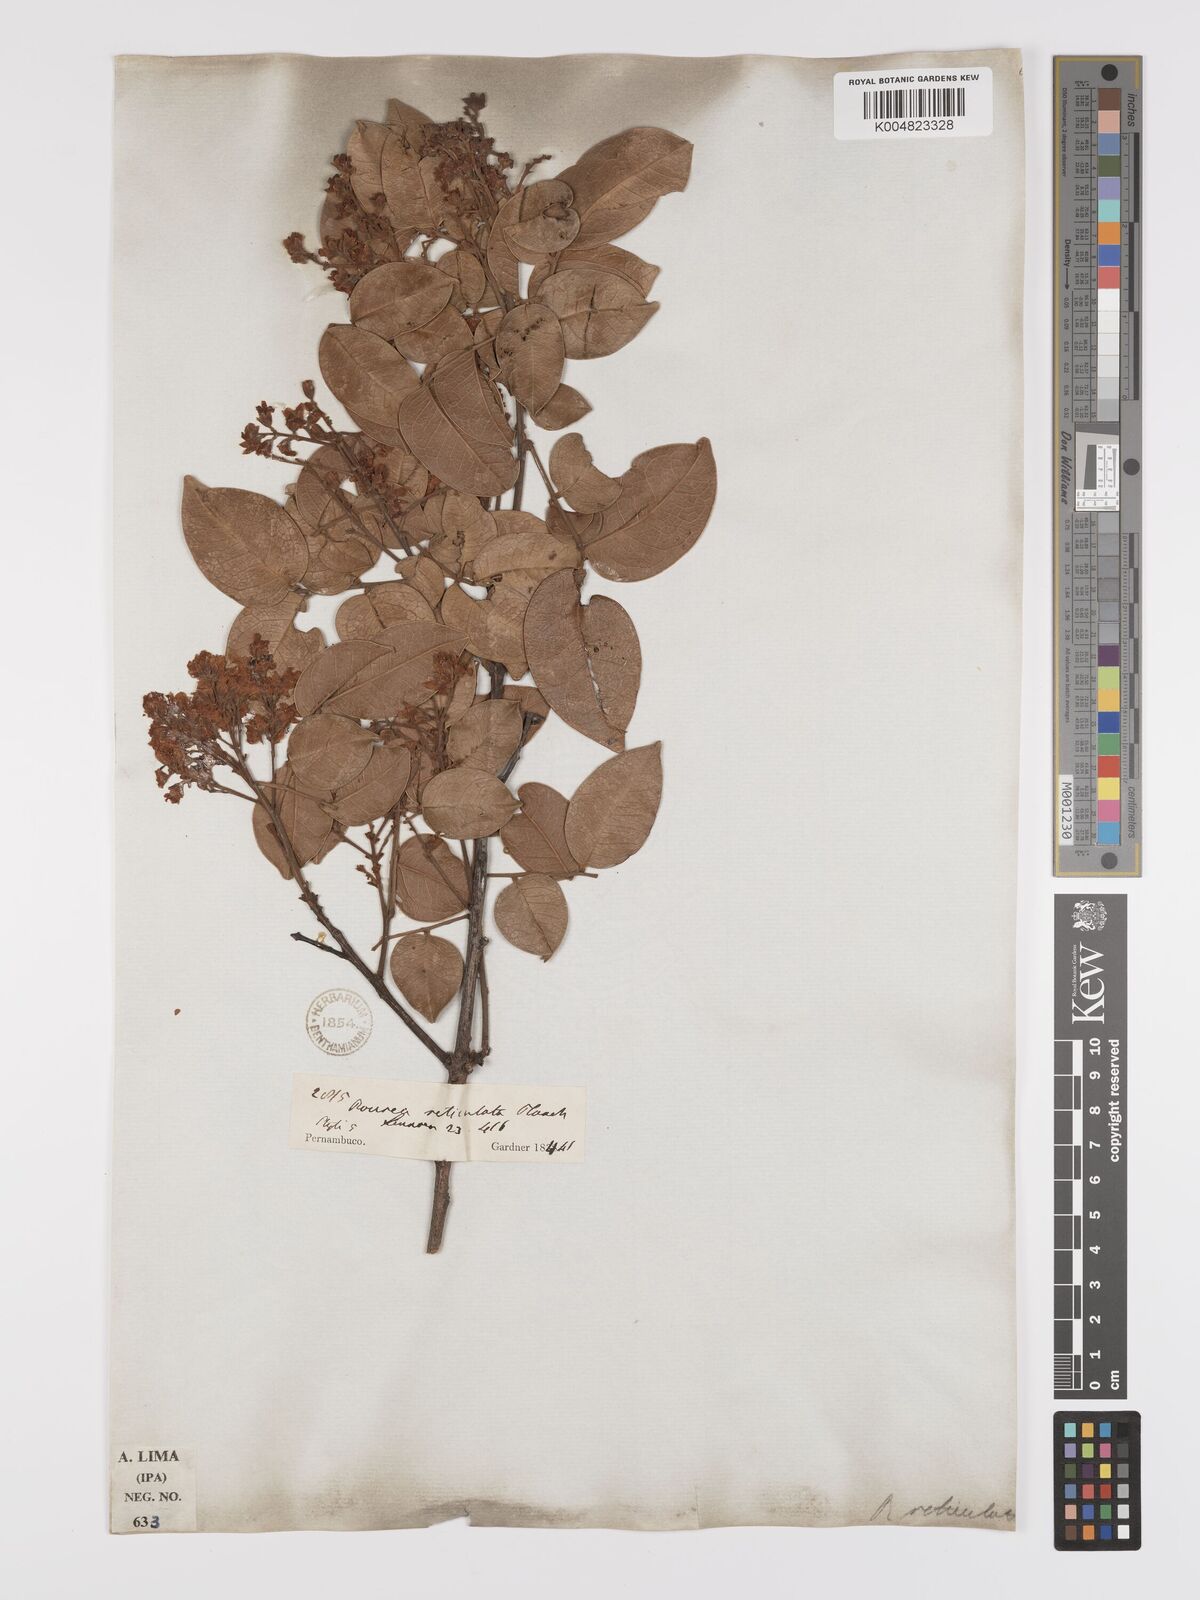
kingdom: Plantae
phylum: Tracheophyta
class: Magnoliopsida
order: Oxalidales
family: Connaraceae
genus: Rourea
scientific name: Rourea induta
